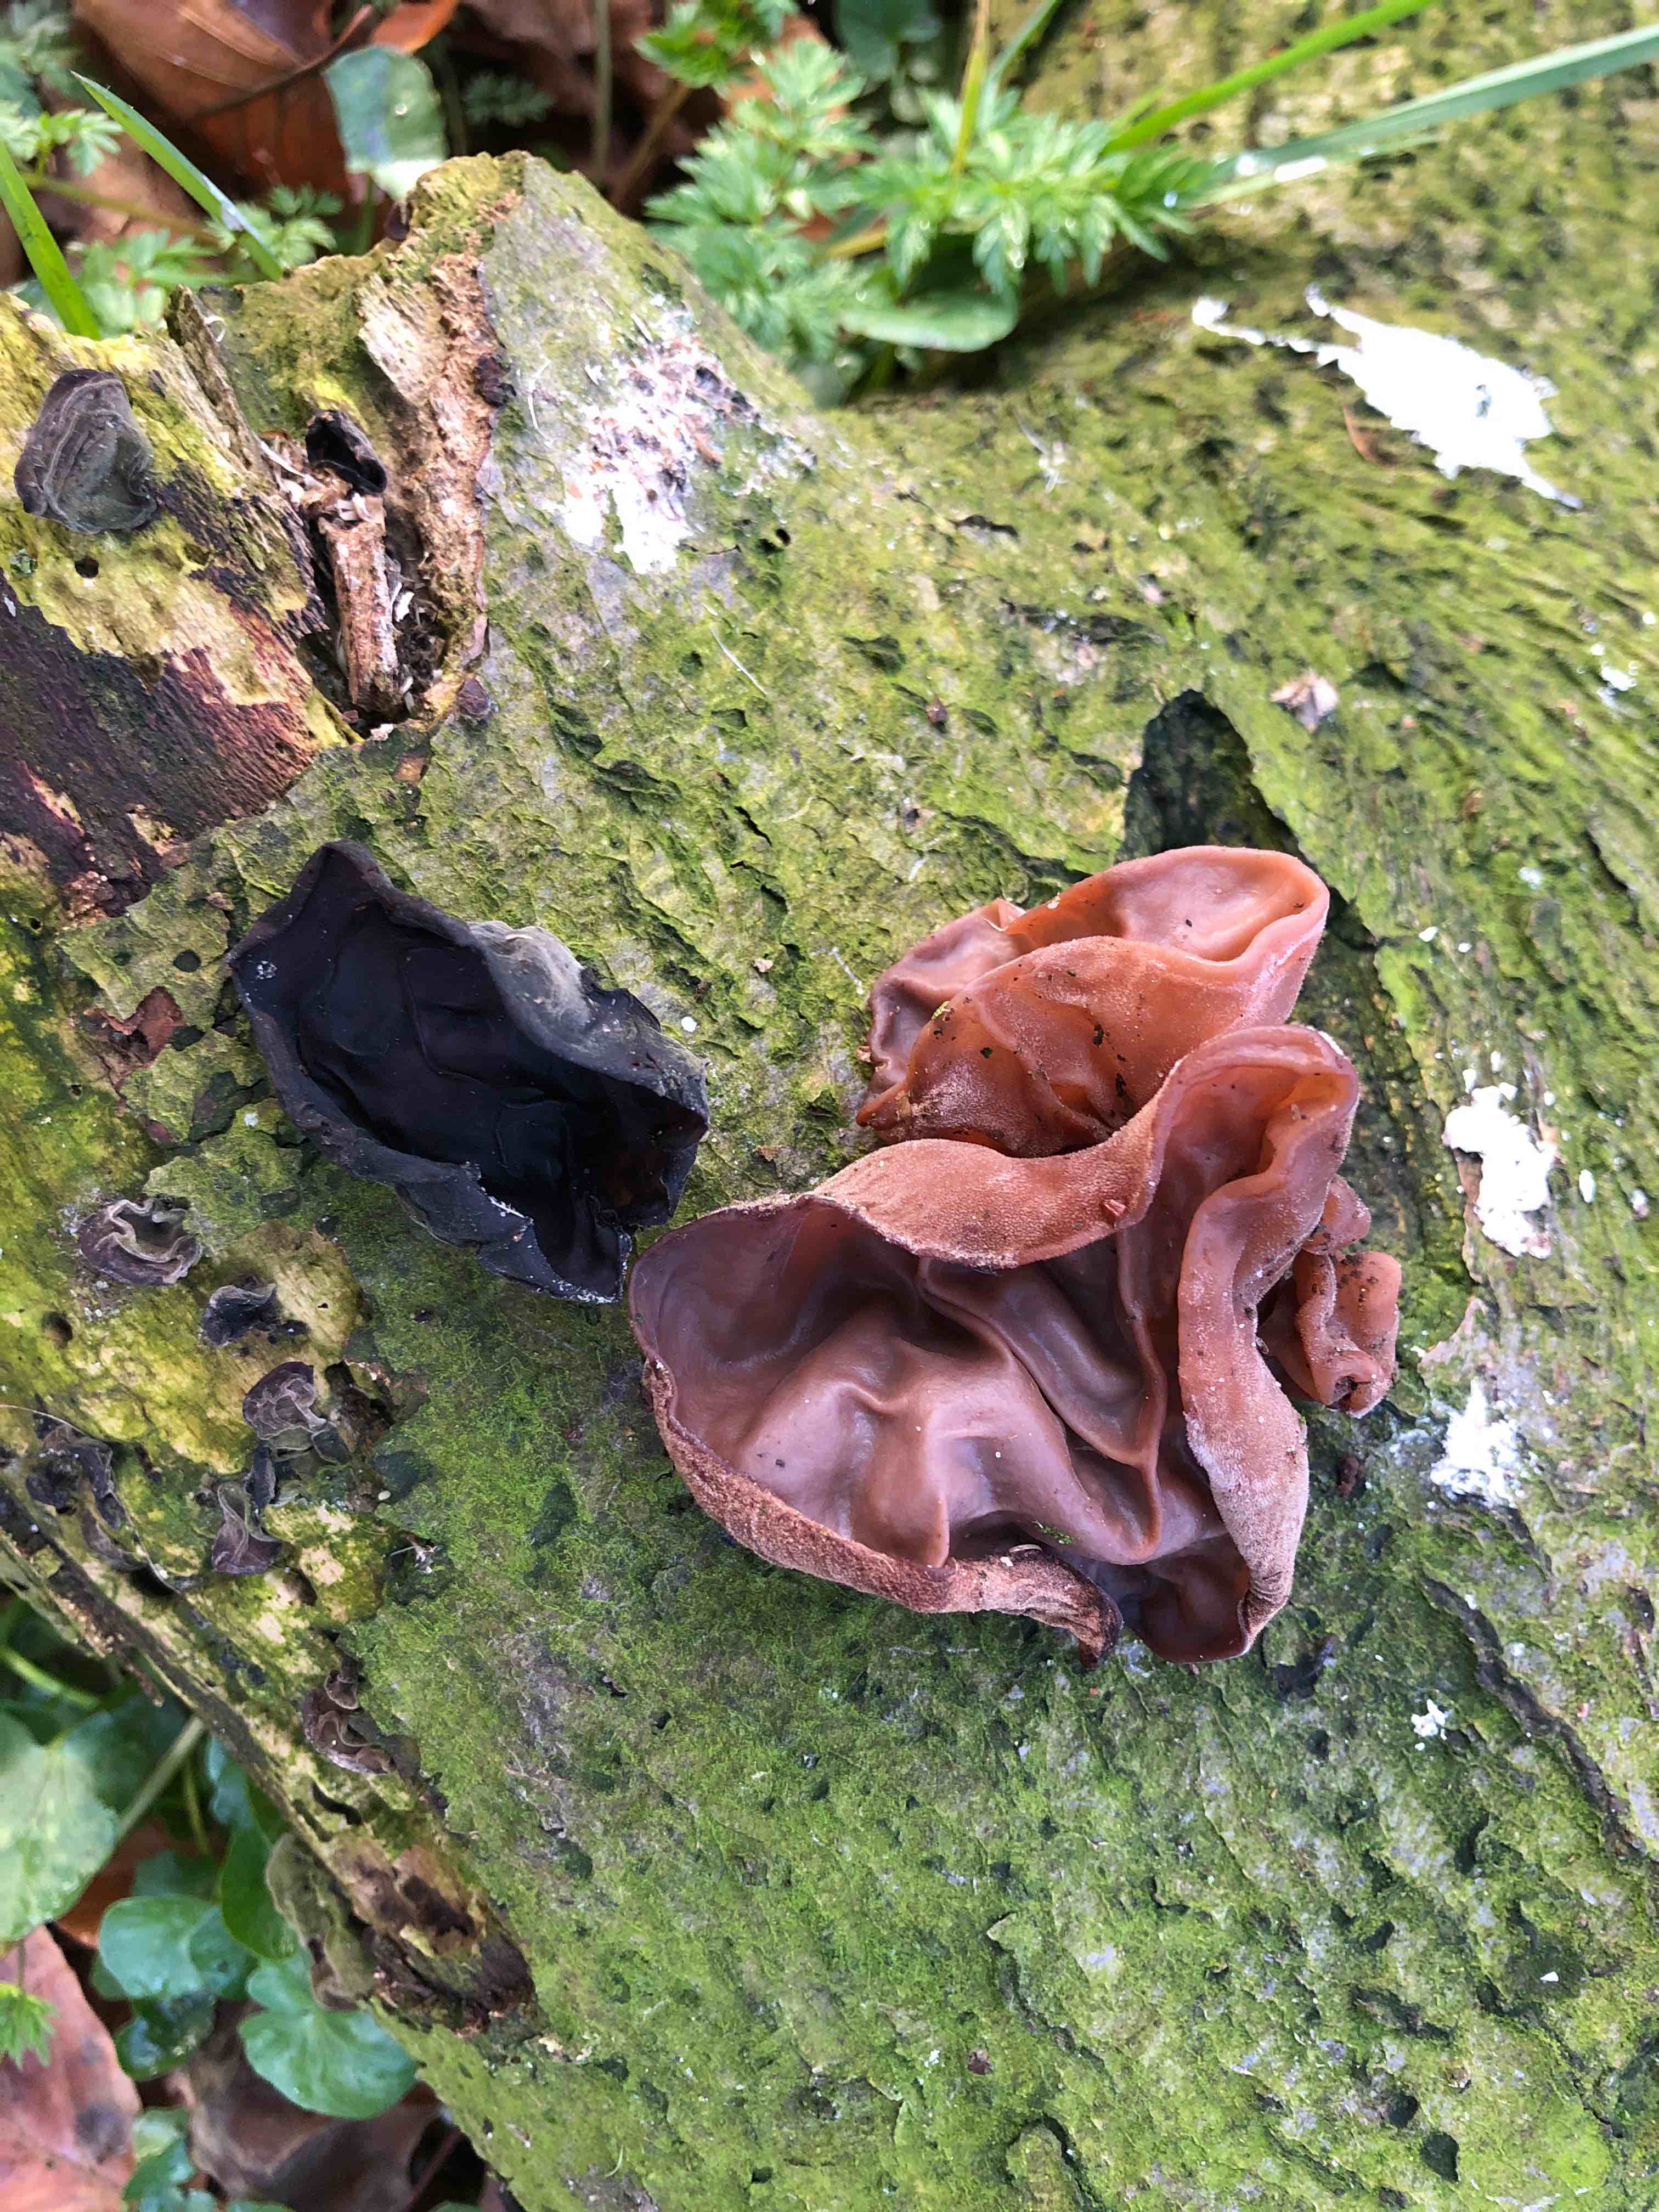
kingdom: Fungi
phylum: Basidiomycota
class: Agaricomycetes
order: Auriculariales
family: Auriculariaceae
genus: Auricularia
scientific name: Auricularia auricula-judae
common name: almindelig judasøre
